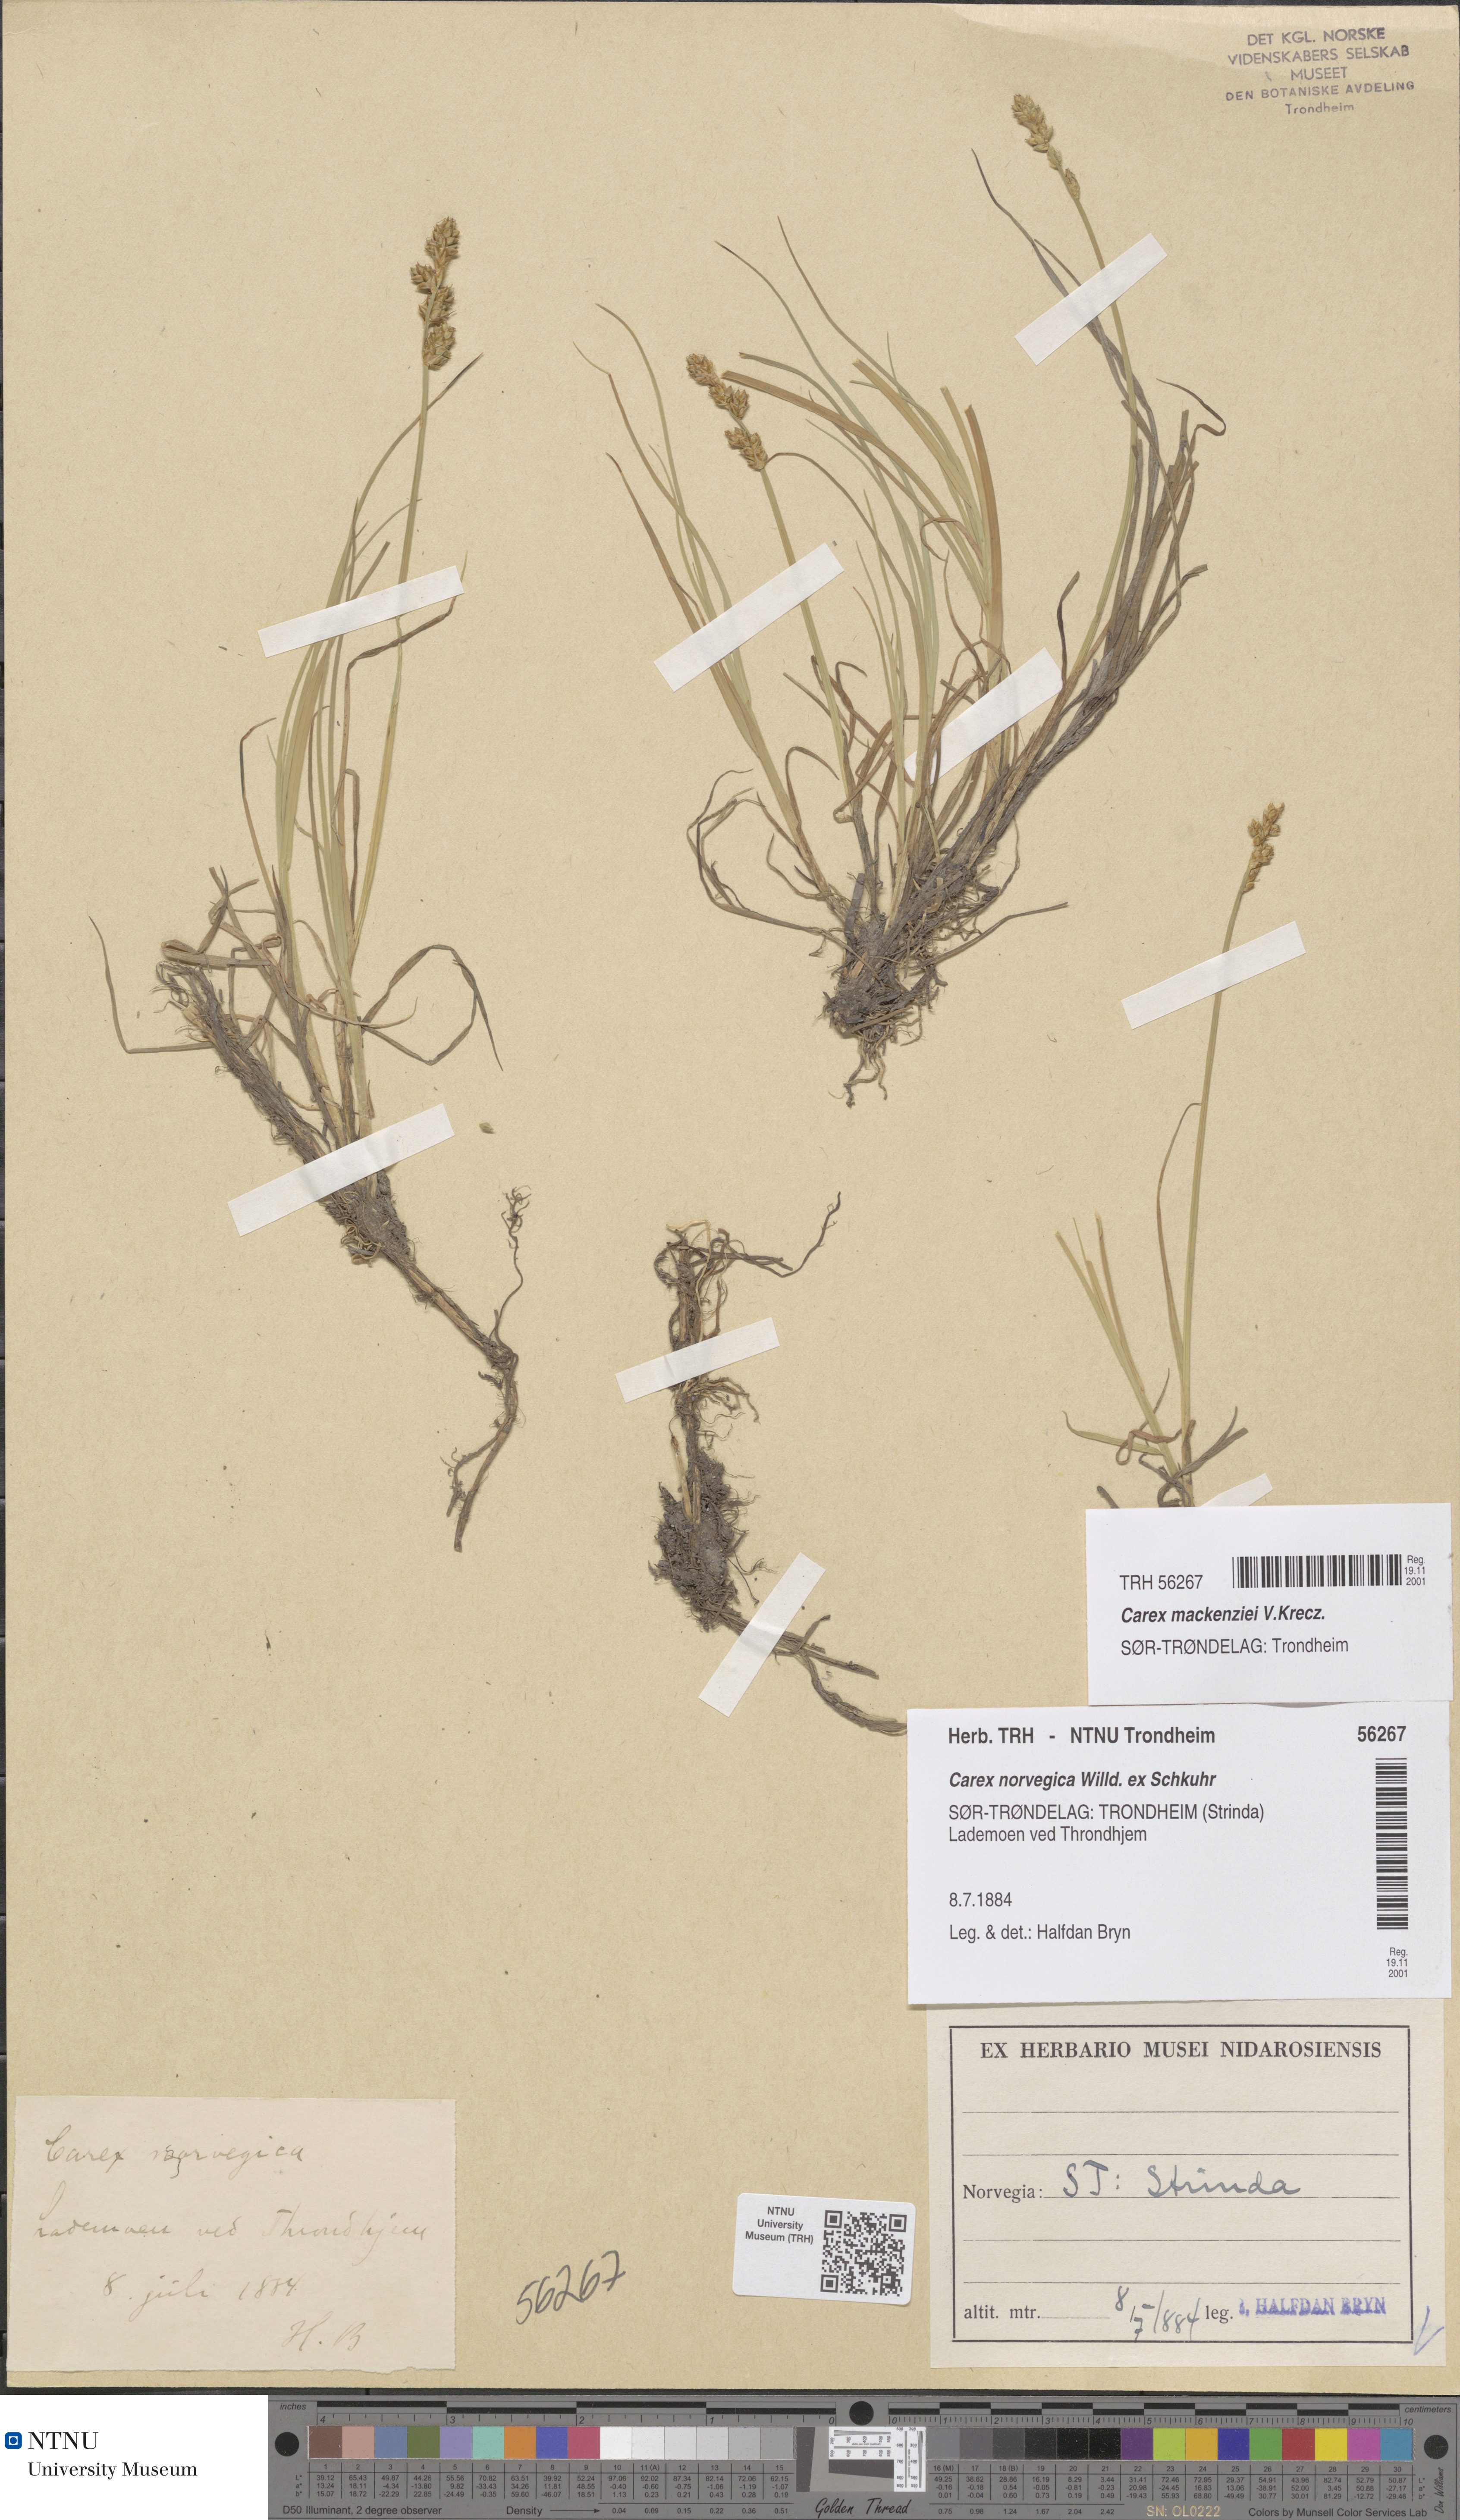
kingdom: Plantae
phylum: Tracheophyta
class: Liliopsida
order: Poales
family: Cyperaceae
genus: Carex
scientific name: Carex mackenziei
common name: Mackenzie's sedge
